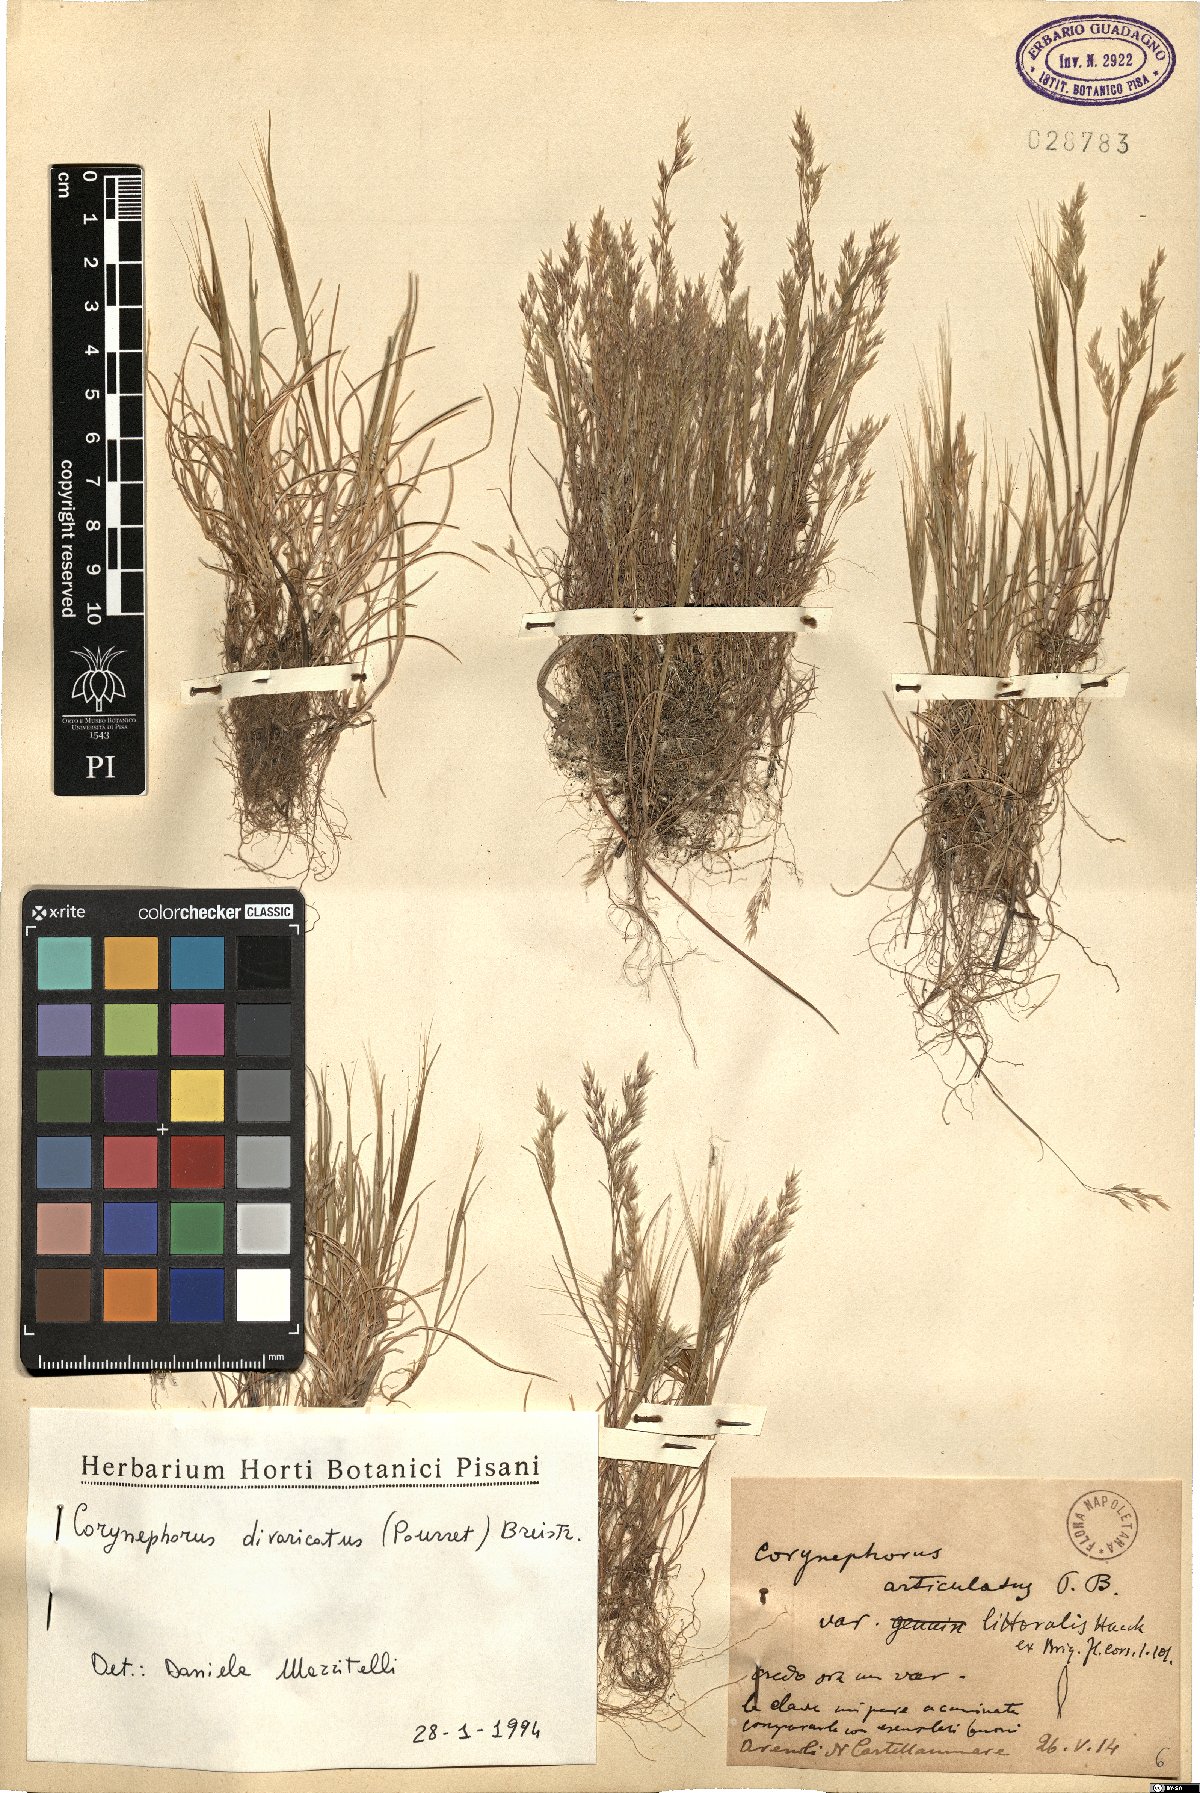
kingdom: Plantae
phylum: Tracheophyta
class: Liliopsida
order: Poales
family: Poaceae
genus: Corynephorus
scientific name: Corynephorus divaricatus
